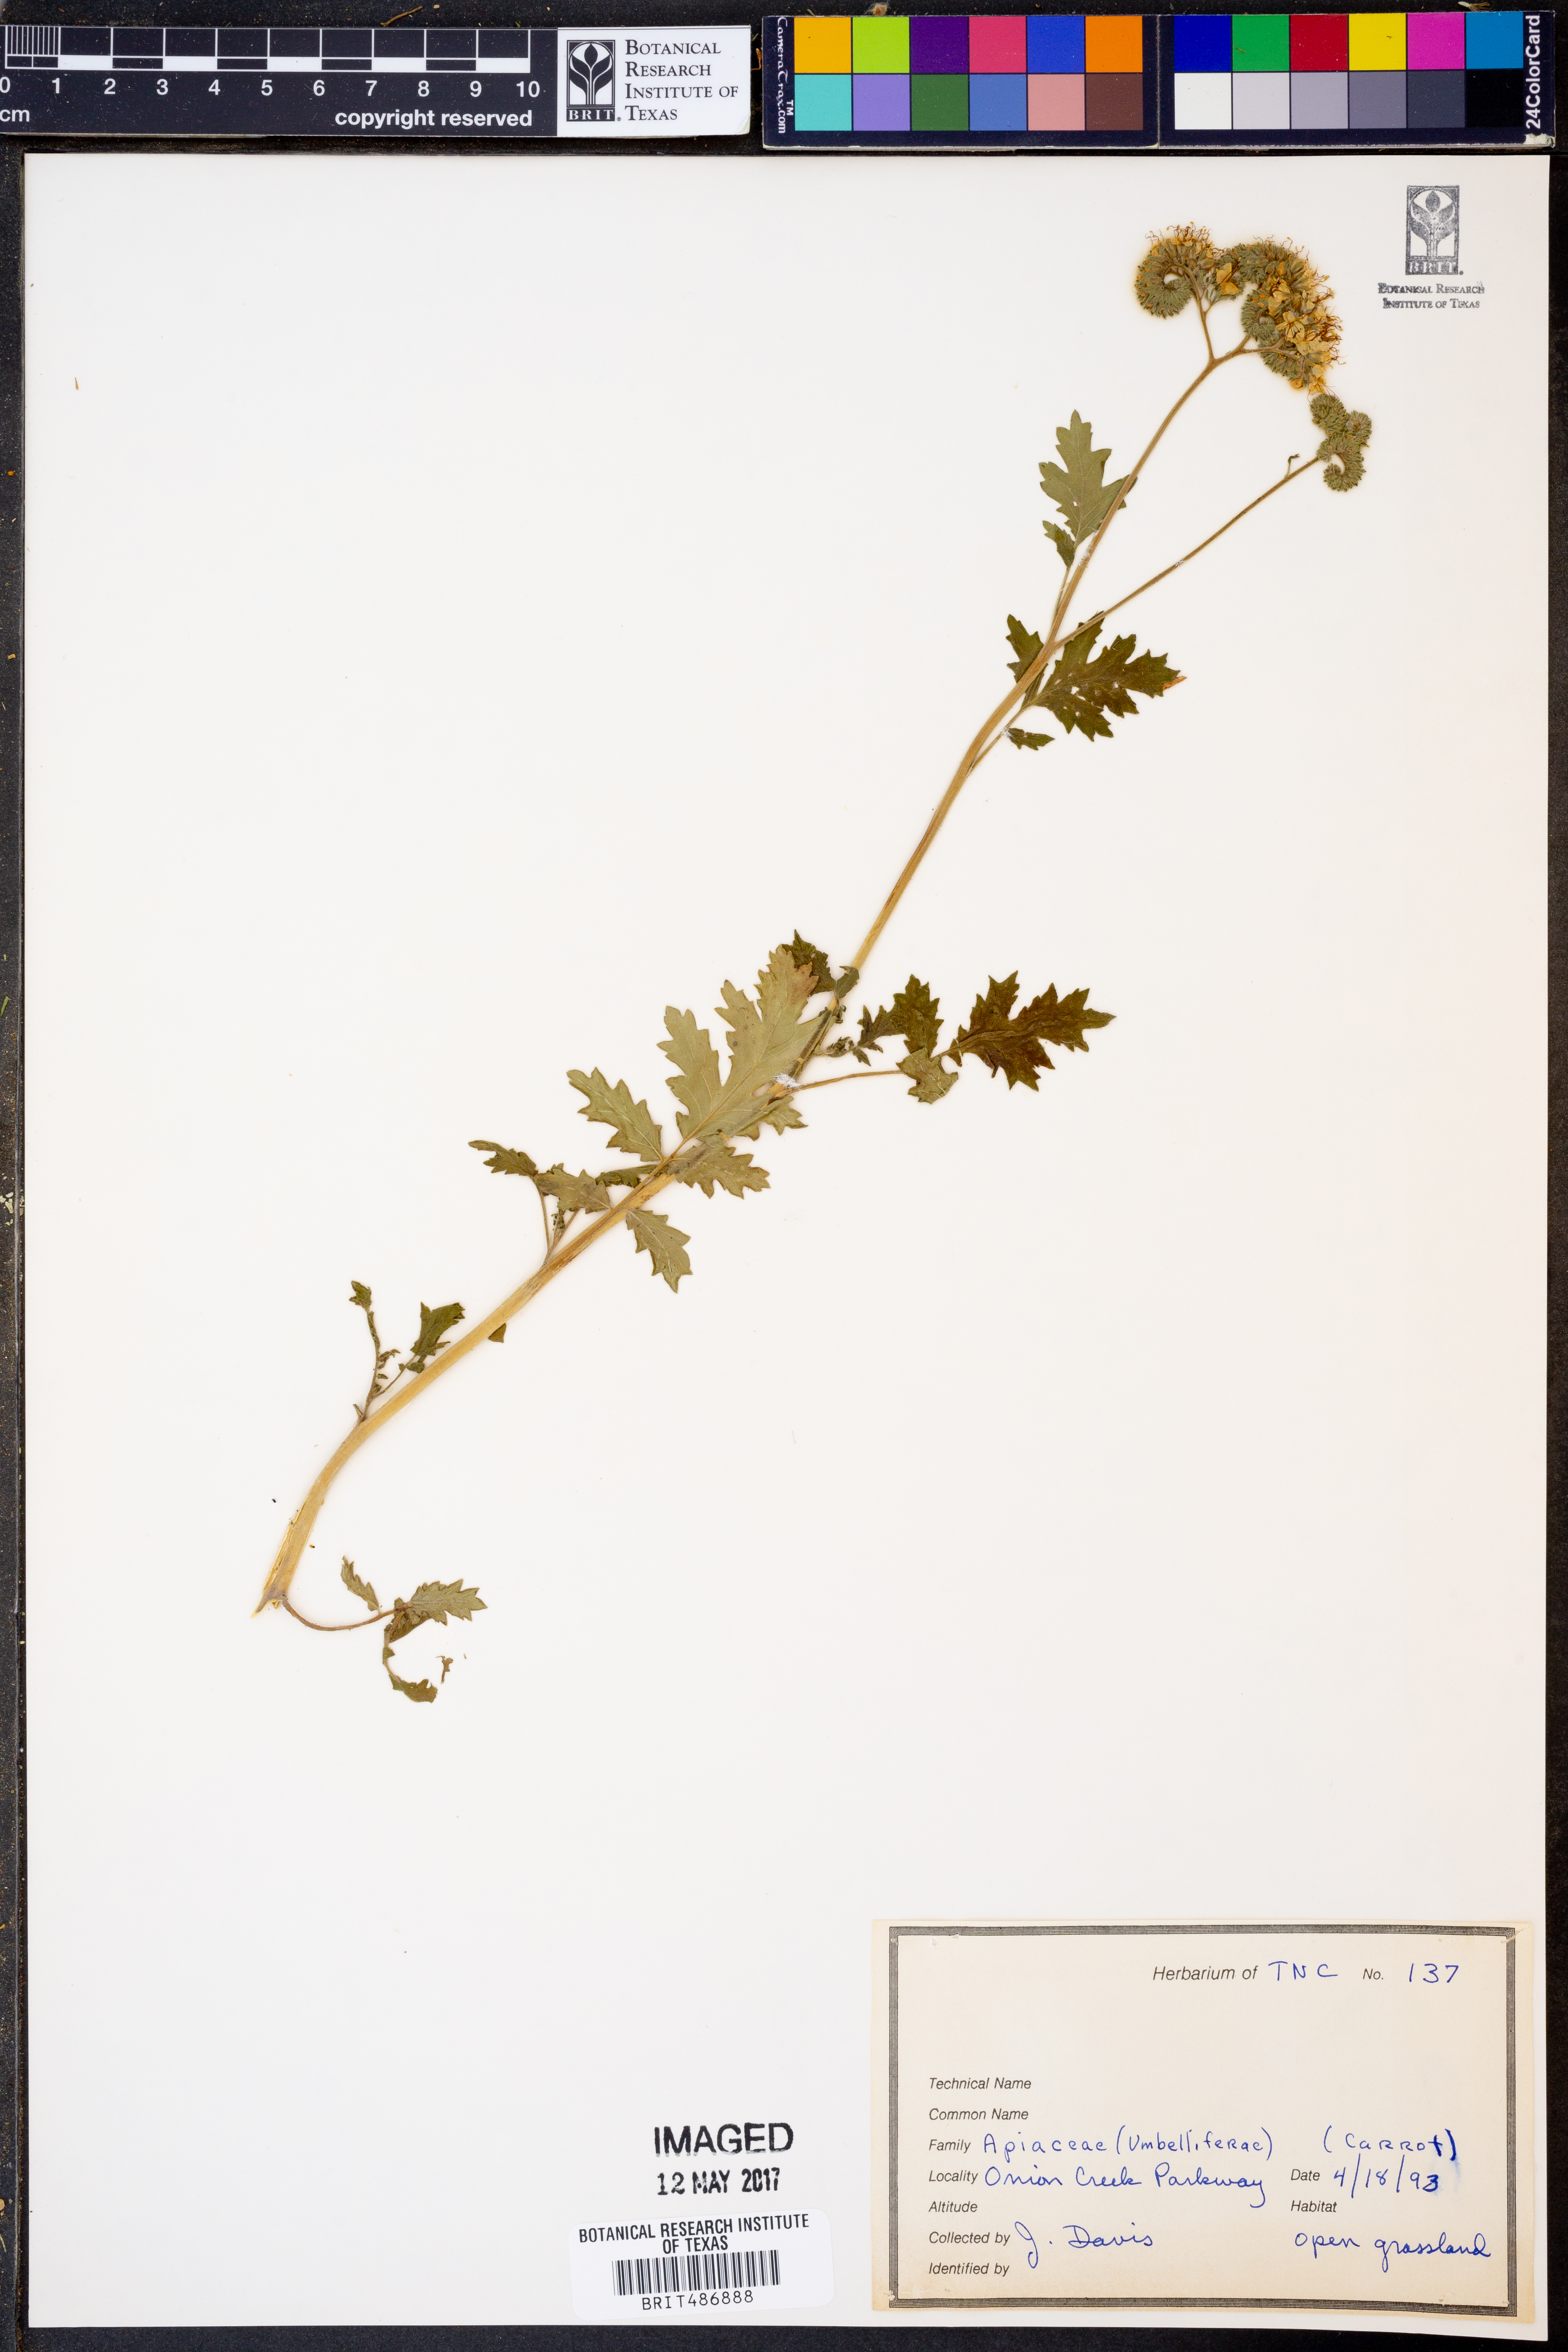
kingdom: Plantae
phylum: Tracheophyta
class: Magnoliopsida
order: Apiales
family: Apiaceae
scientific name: Apiaceae
